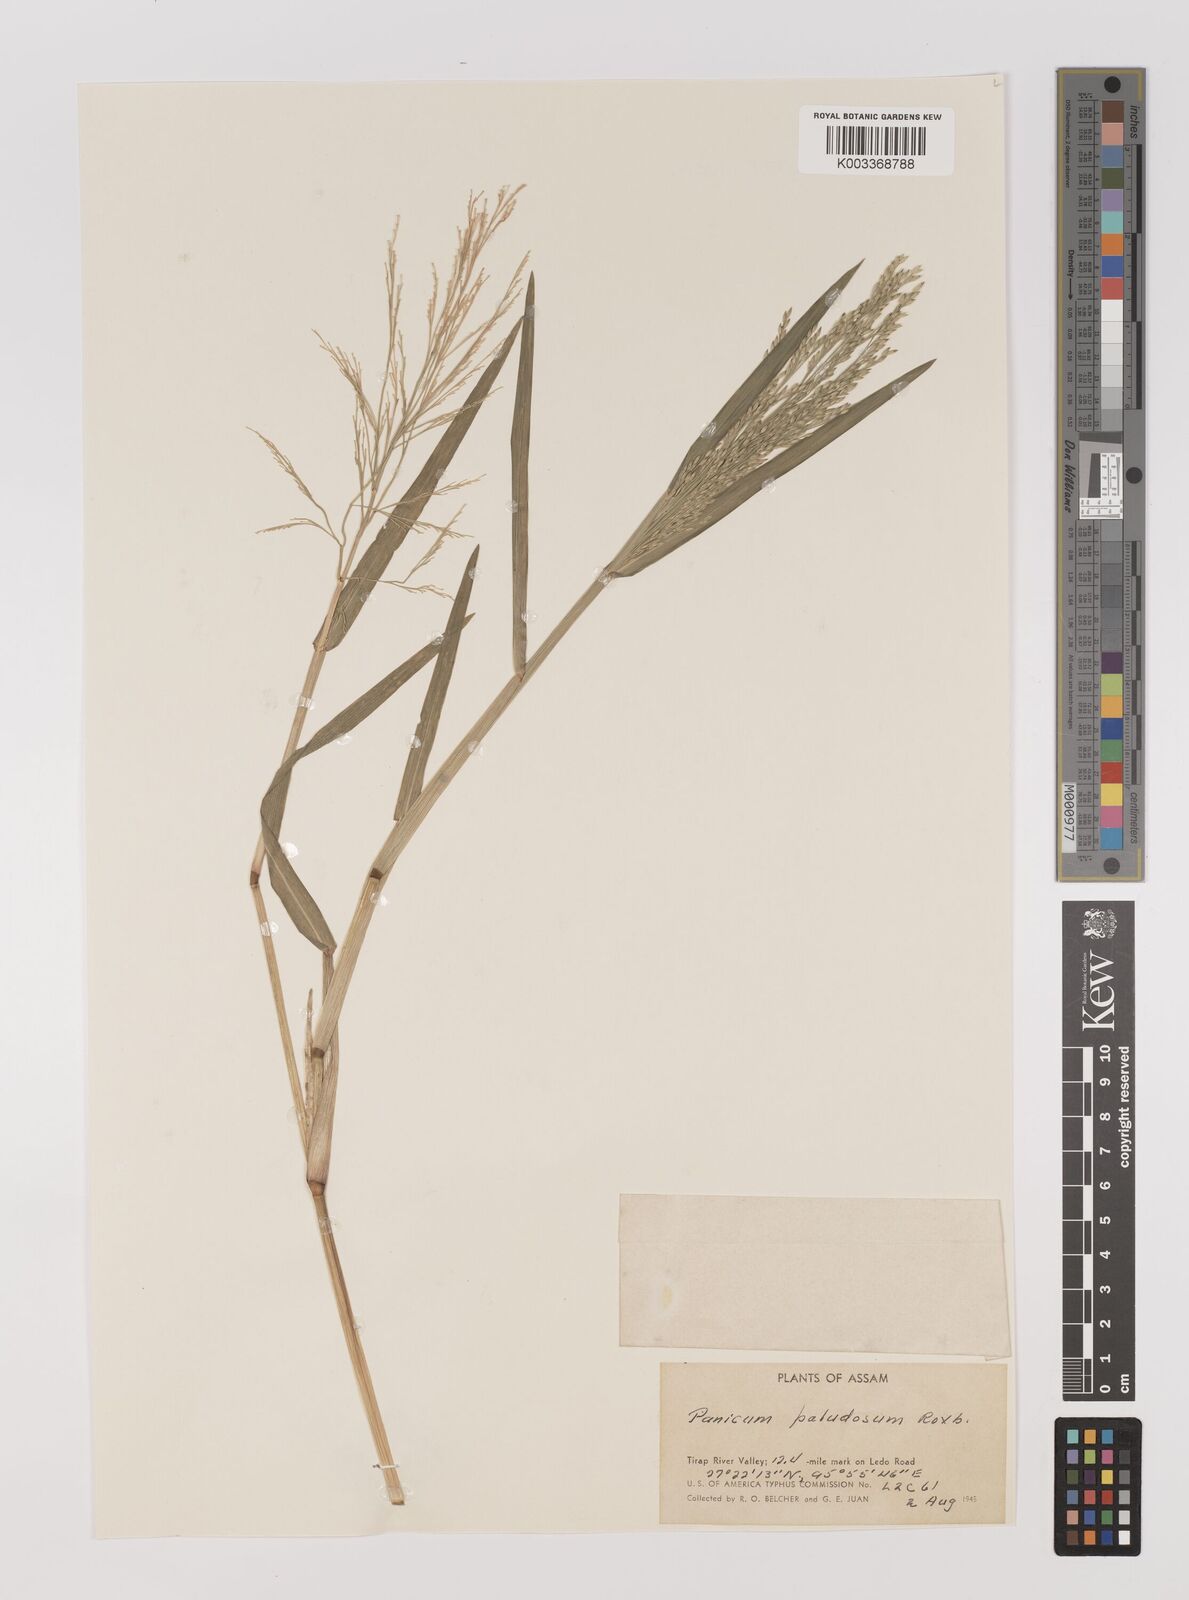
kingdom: Plantae
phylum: Tracheophyta
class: Liliopsida
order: Poales
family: Poaceae
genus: Louisiella
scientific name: Louisiella paludosa
